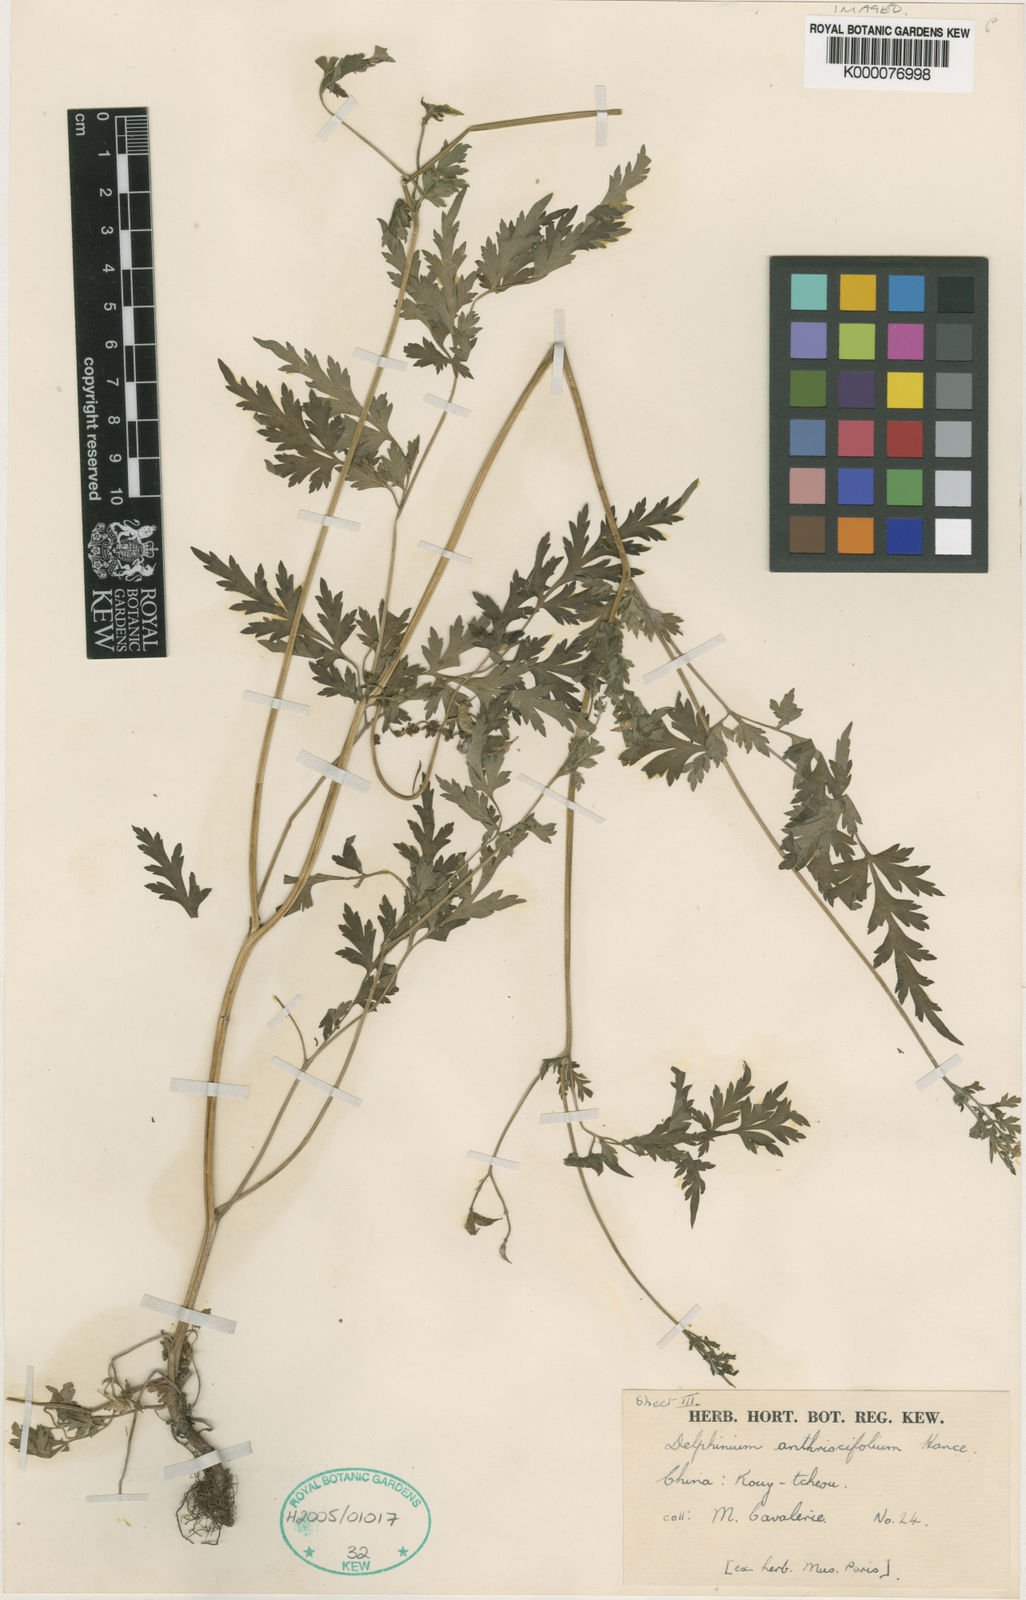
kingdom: Plantae
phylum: Tracheophyta
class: Magnoliopsida
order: Ranunculales
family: Ranunculaceae
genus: Delphinium
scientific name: Delphinium anthriscifolium
